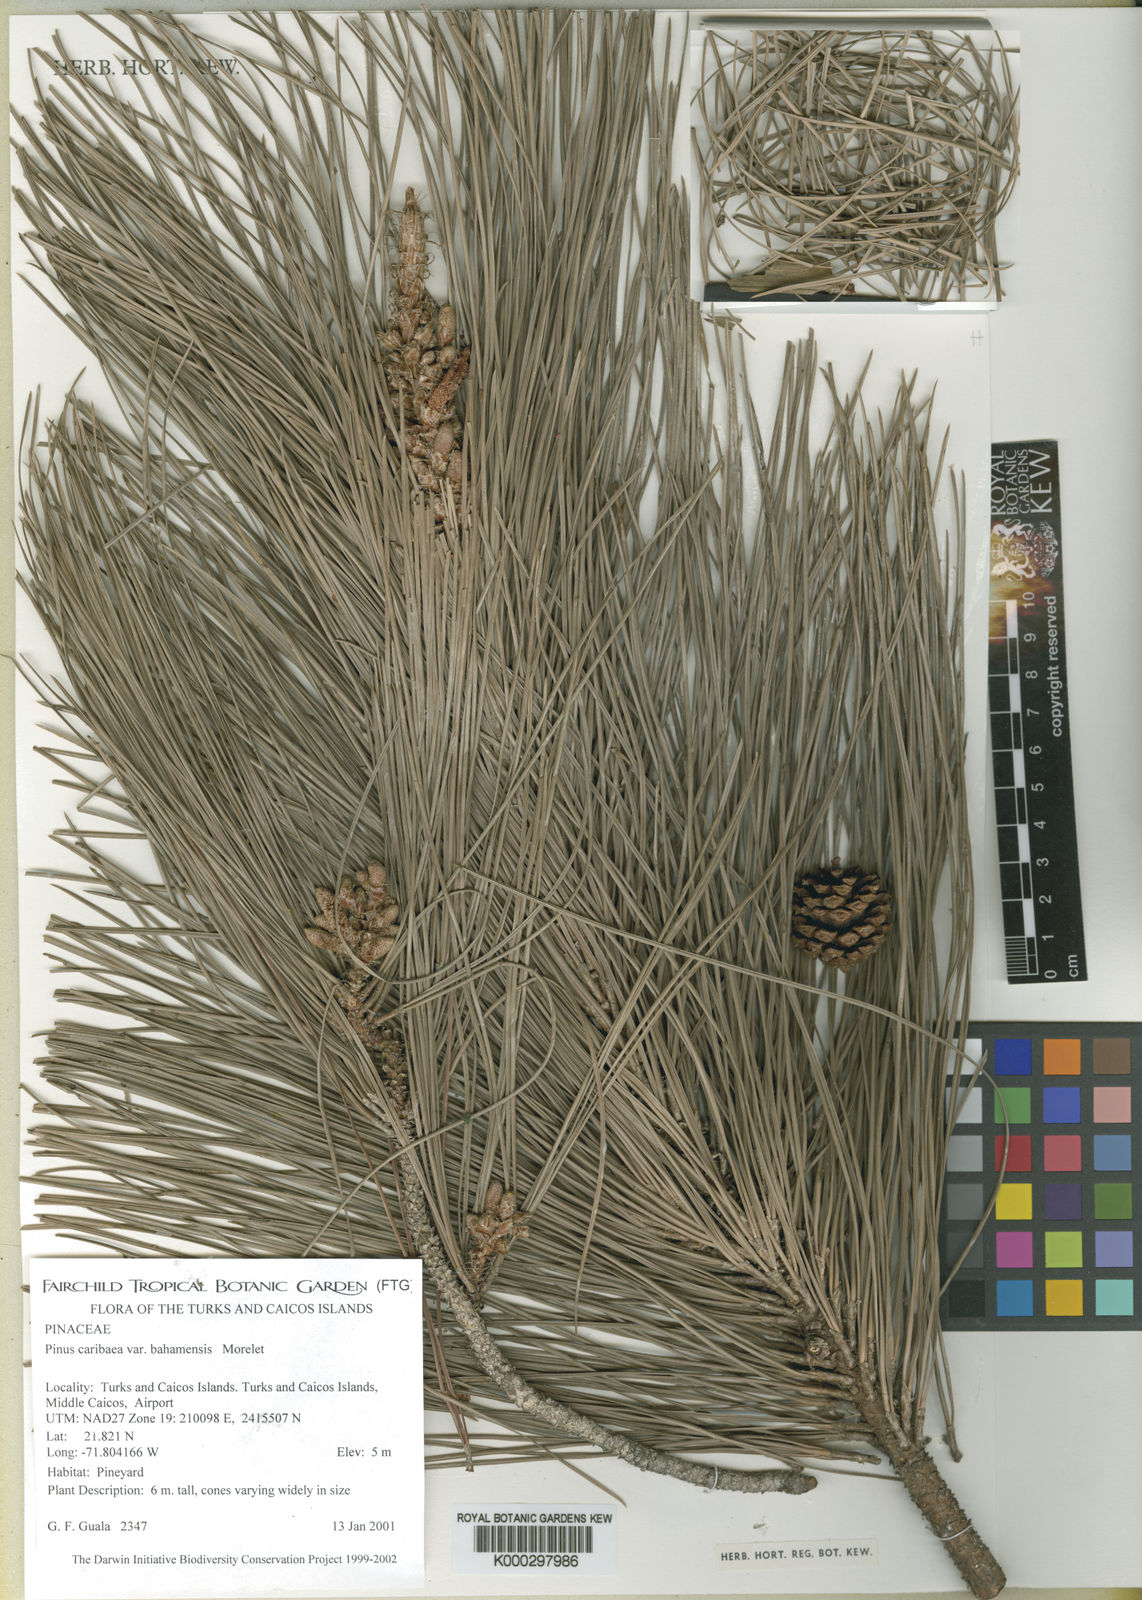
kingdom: Plantae
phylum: Tracheophyta
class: Pinopsida
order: Pinales
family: Pinaceae
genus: Pinus
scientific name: Pinus caribaea
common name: Caribbean pine
